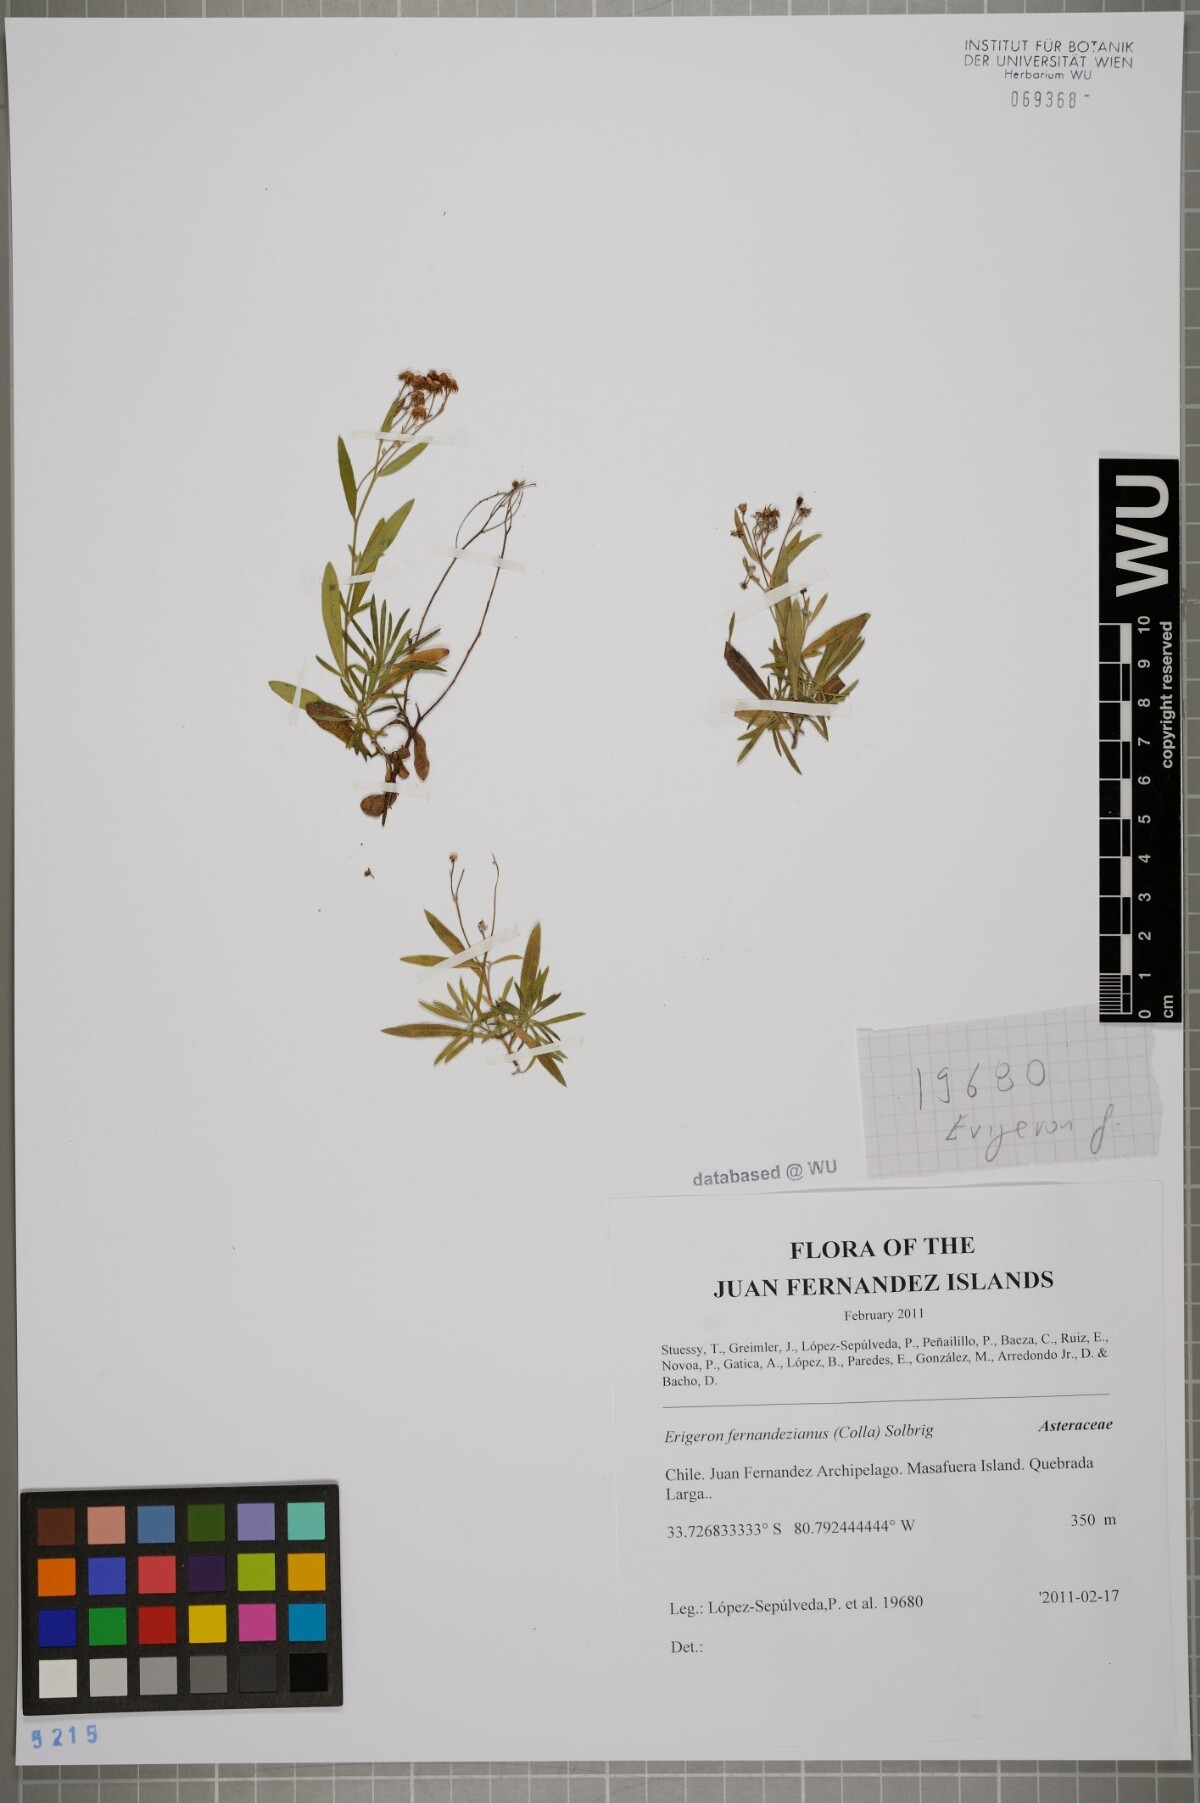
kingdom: Plantae
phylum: Tracheophyta
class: Magnoliopsida
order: Asterales
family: Asteraceae
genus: Erigeron
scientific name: Erigeron fernandezianus
